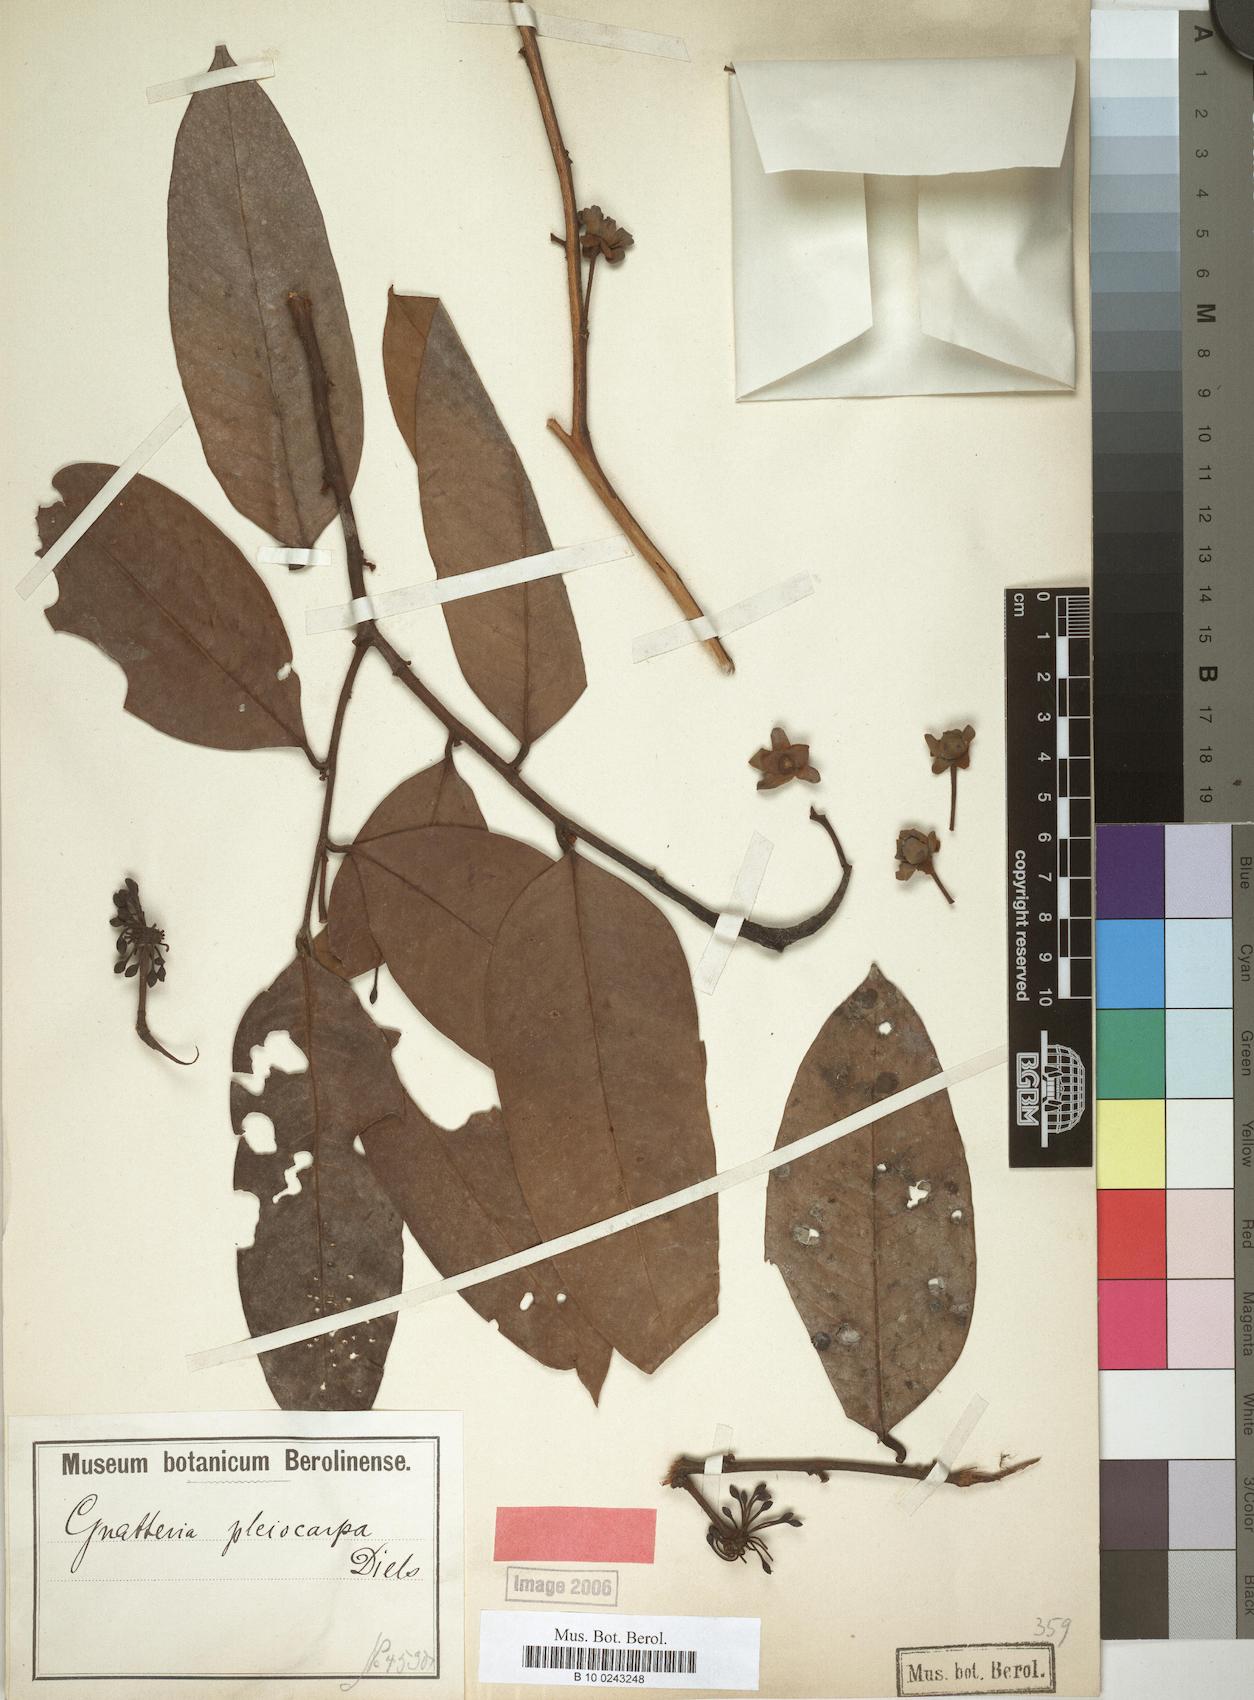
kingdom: Plantae
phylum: Tracheophyta
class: Magnoliopsida
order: Magnoliales
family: Annonaceae
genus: Guatteria
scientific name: Guatteria punctata
